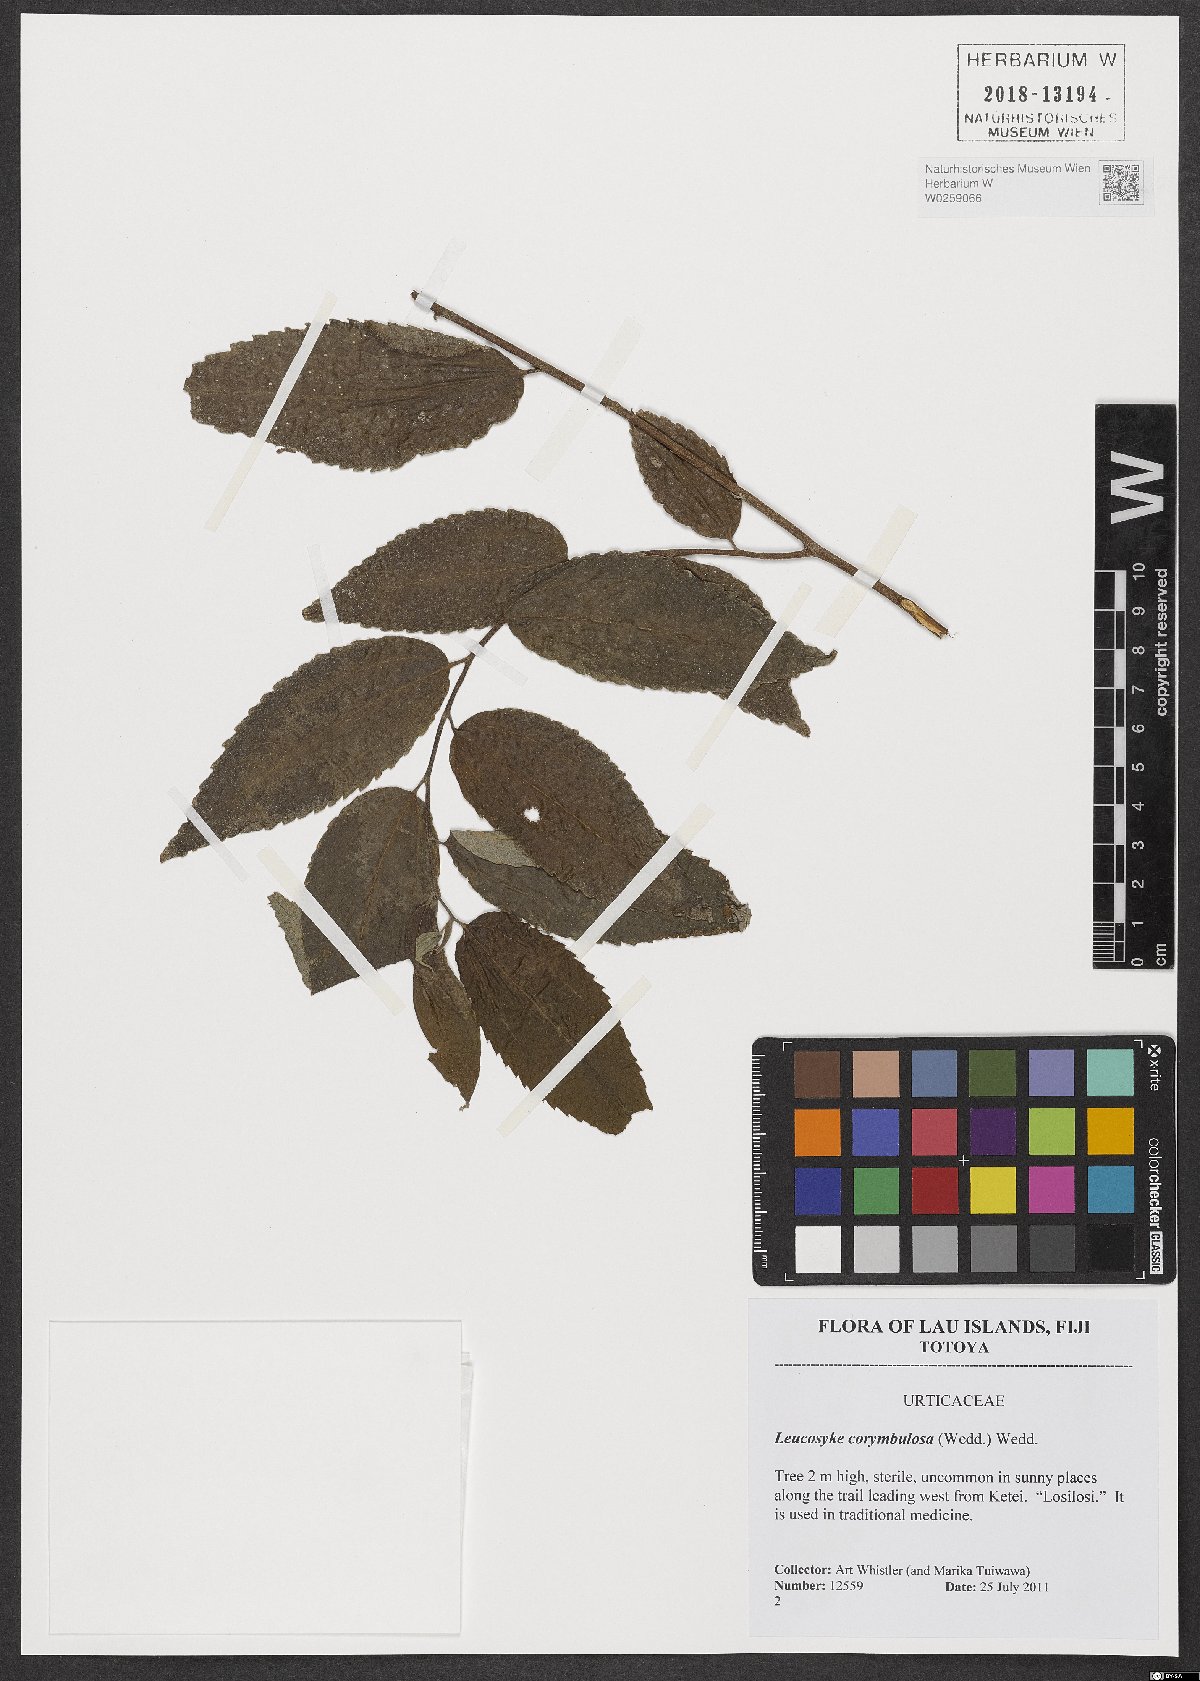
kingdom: Plantae
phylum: Tracheophyta
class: Magnoliopsida
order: Rosales
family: Urticaceae
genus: Leucosyke
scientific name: Leucosyke corymbulosa
